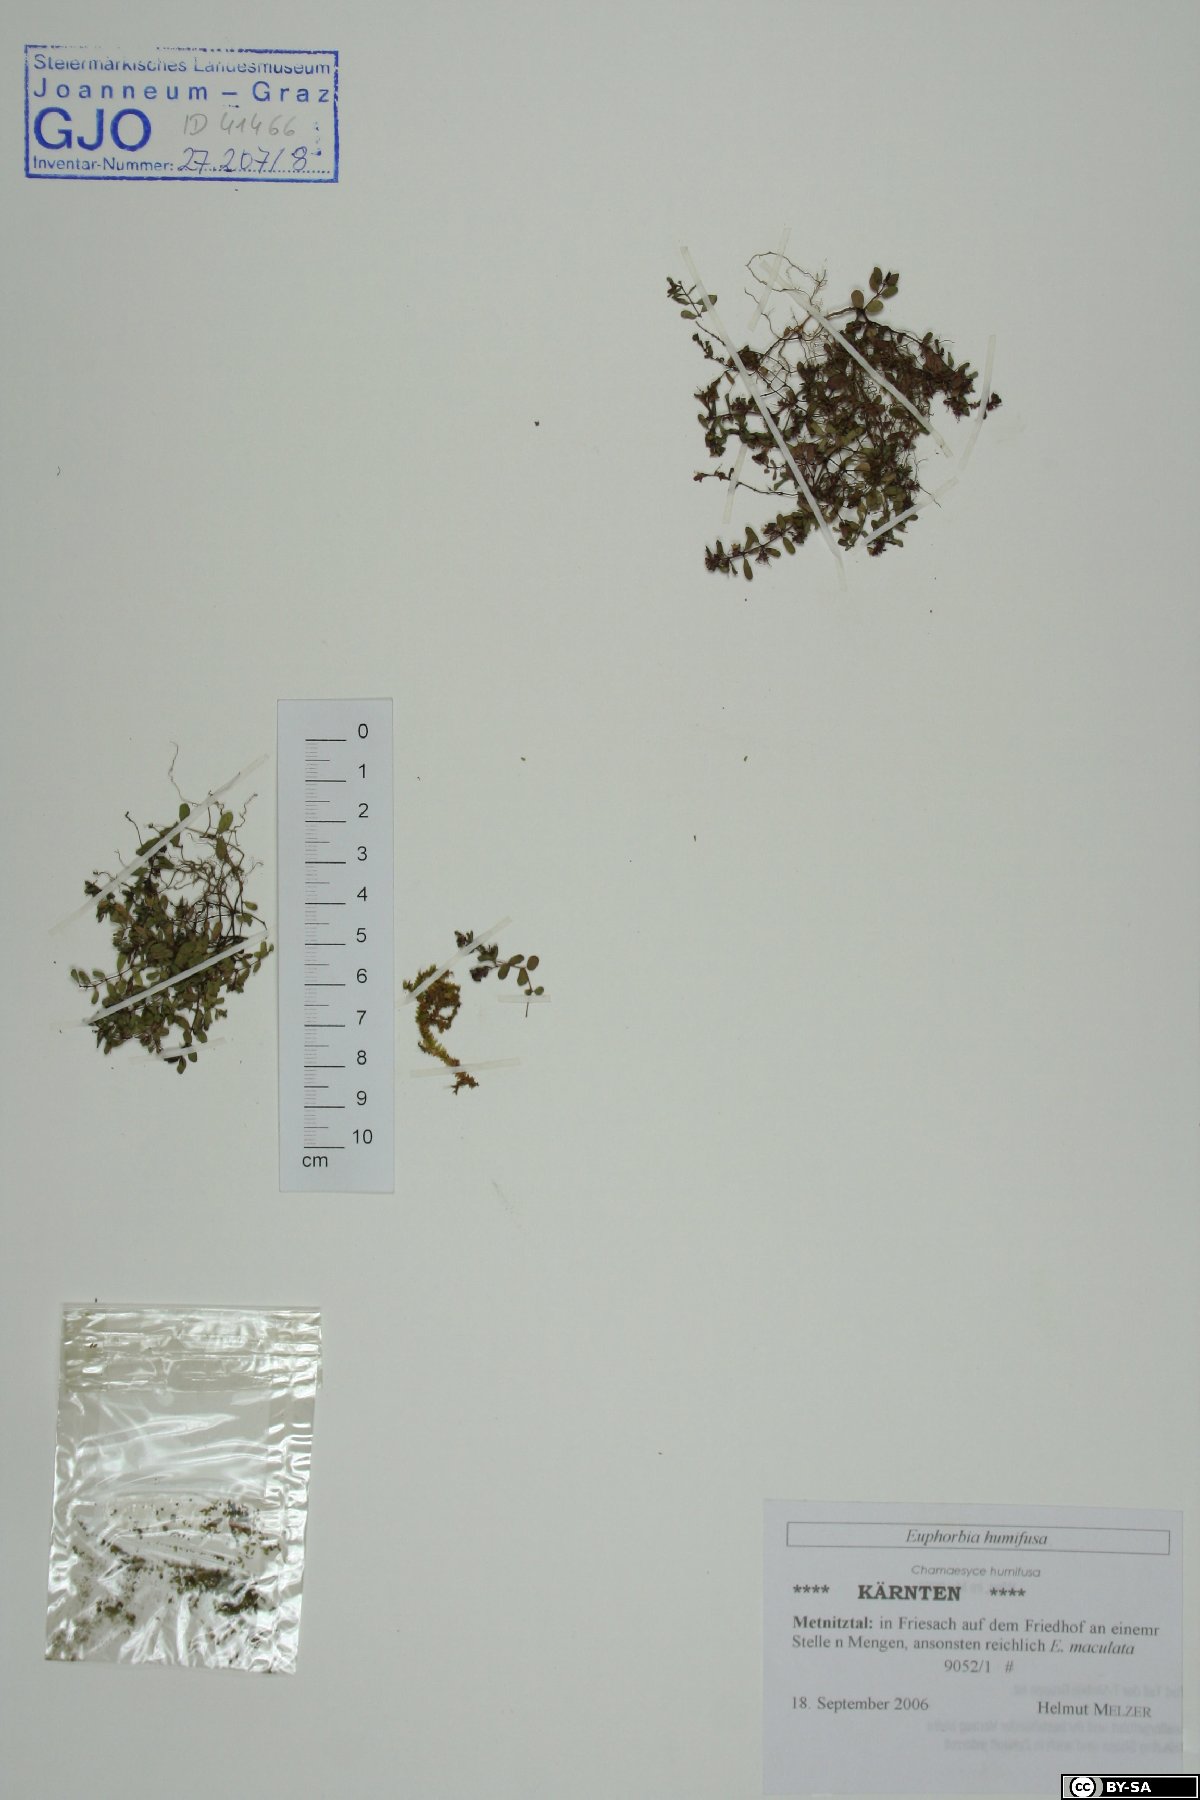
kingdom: Plantae
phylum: Tracheophyta
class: Magnoliopsida
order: Malpighiales
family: Euphorbiaceae
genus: Euphorbia
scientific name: Euphorbia humifusa
